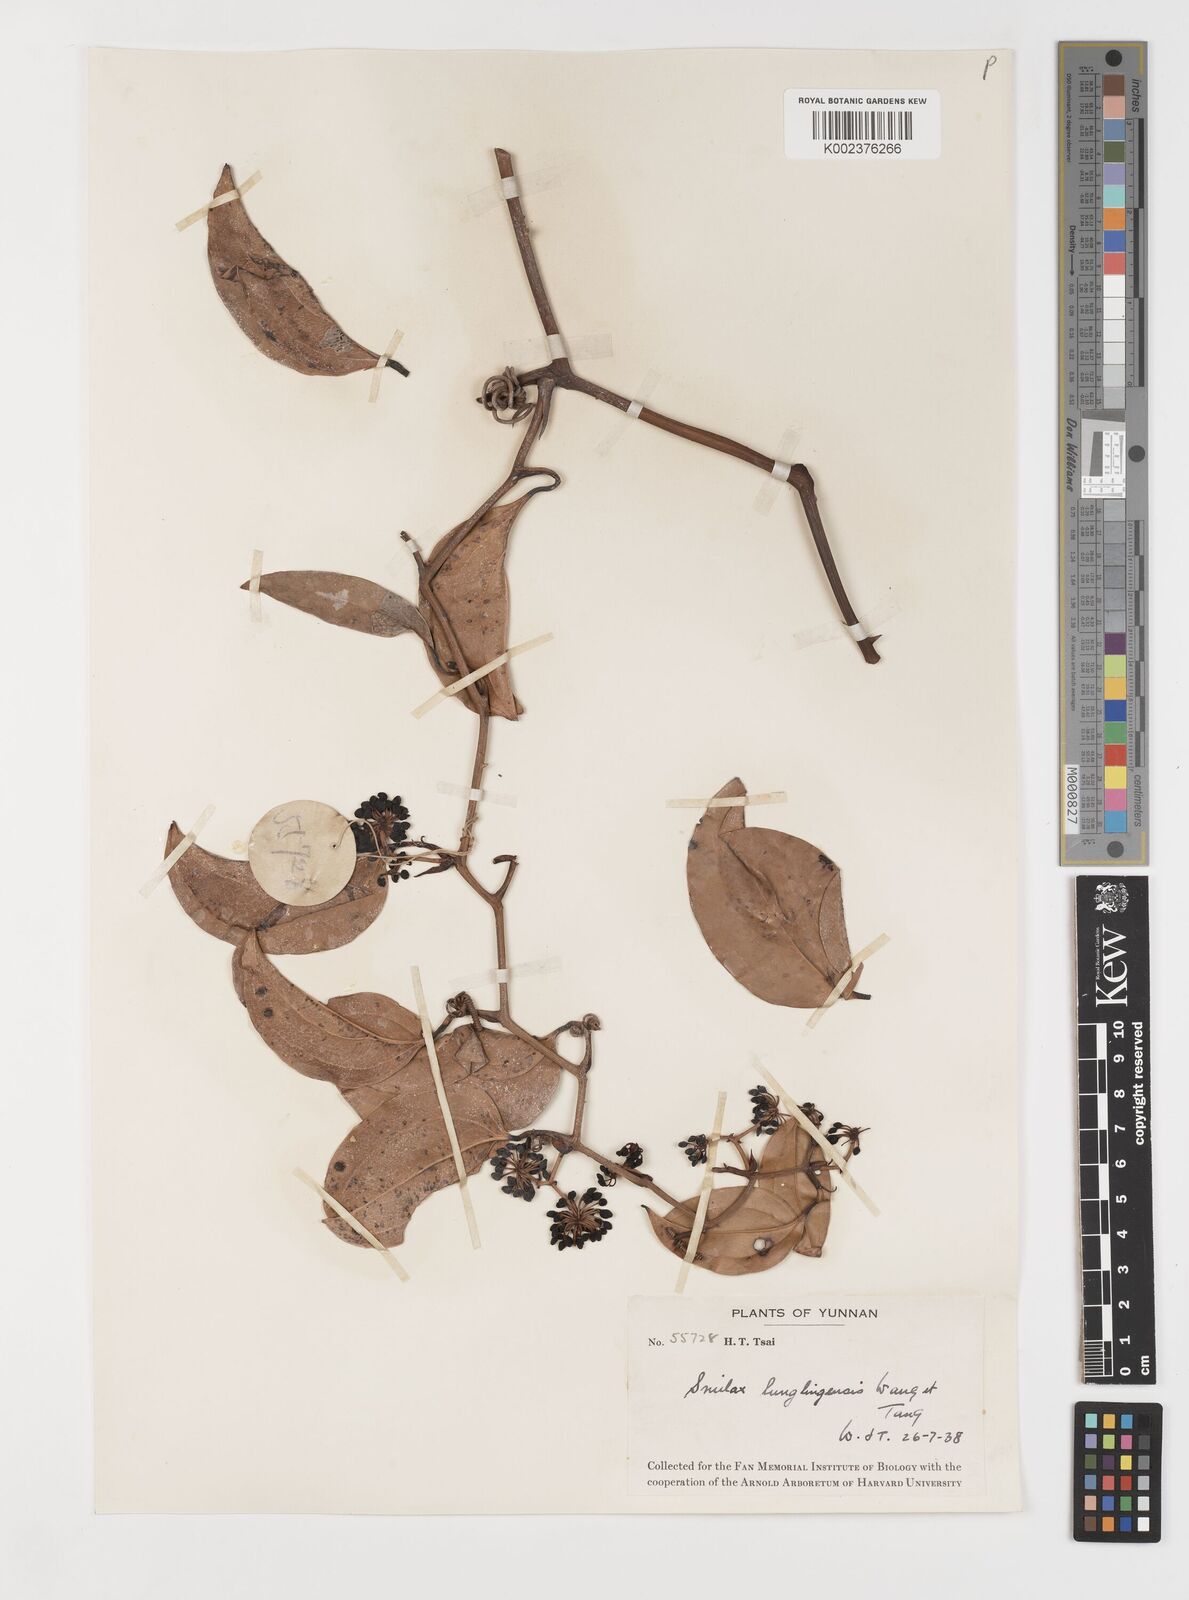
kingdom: Plantae
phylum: Tracheophyta
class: Liliopsida
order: Liliales
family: Smilacaceae
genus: Smilax
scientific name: Smilax lunglingensis
